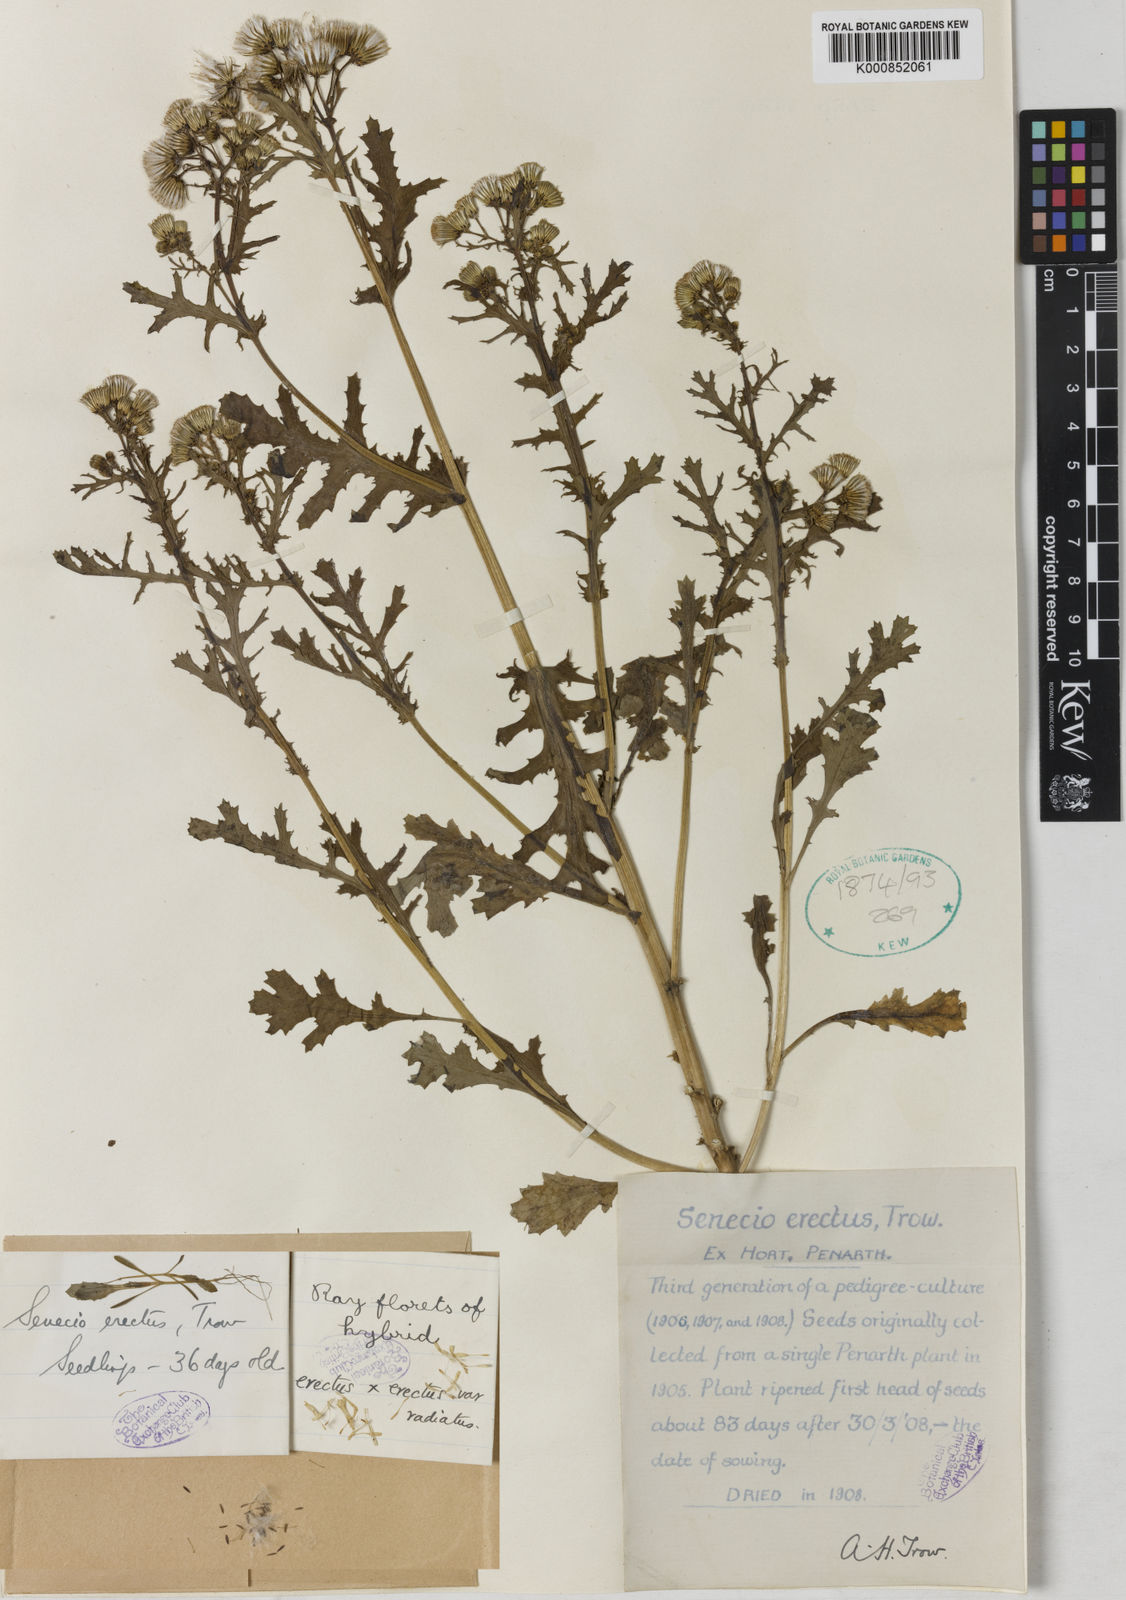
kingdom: Plantae
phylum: Tracheophyta
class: Magnoliopsida
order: Asterales
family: Asteraceae
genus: Senecio
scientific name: Senecio vulgaris
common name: Old-man-in-the-spring
